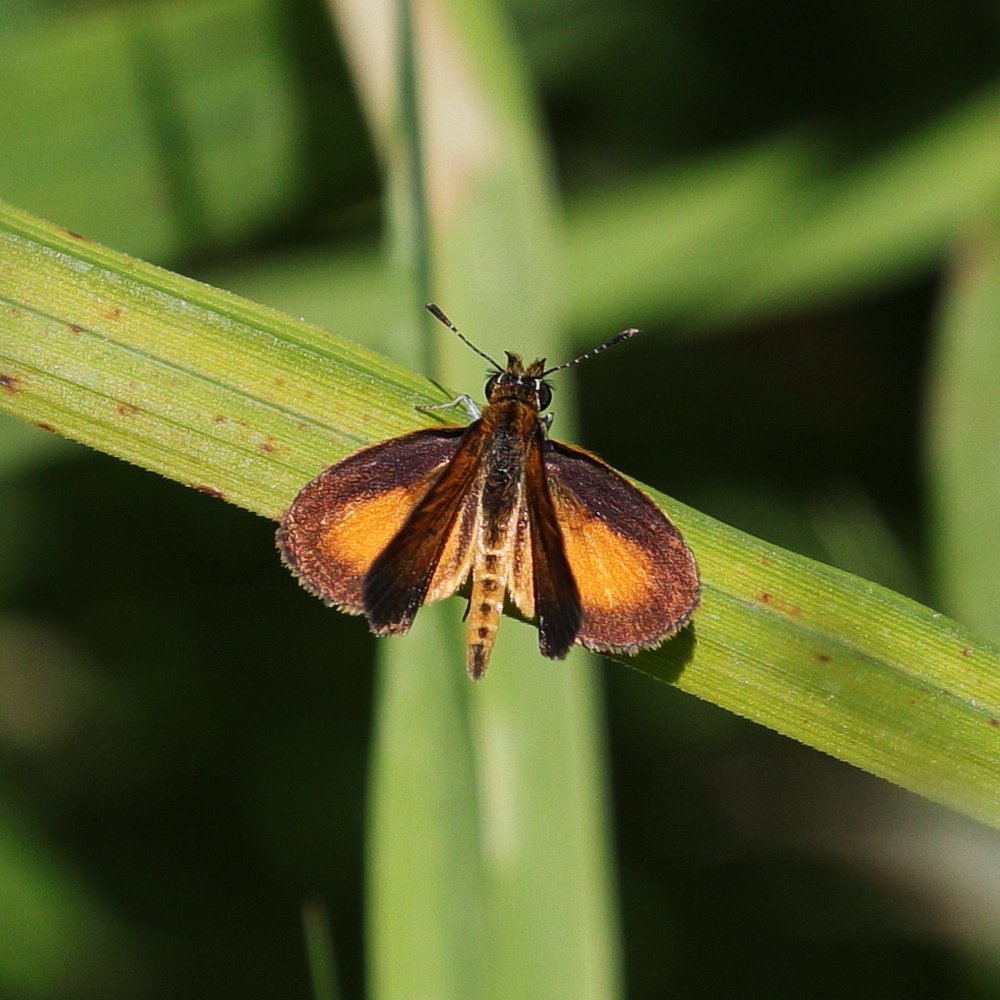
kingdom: Animalia
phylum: Arthropoda
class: Insecta
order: Lepidoptera
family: Hesperiidae
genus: Ancyloxypha
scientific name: Ancyloxypha numitor
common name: Least Skipper
